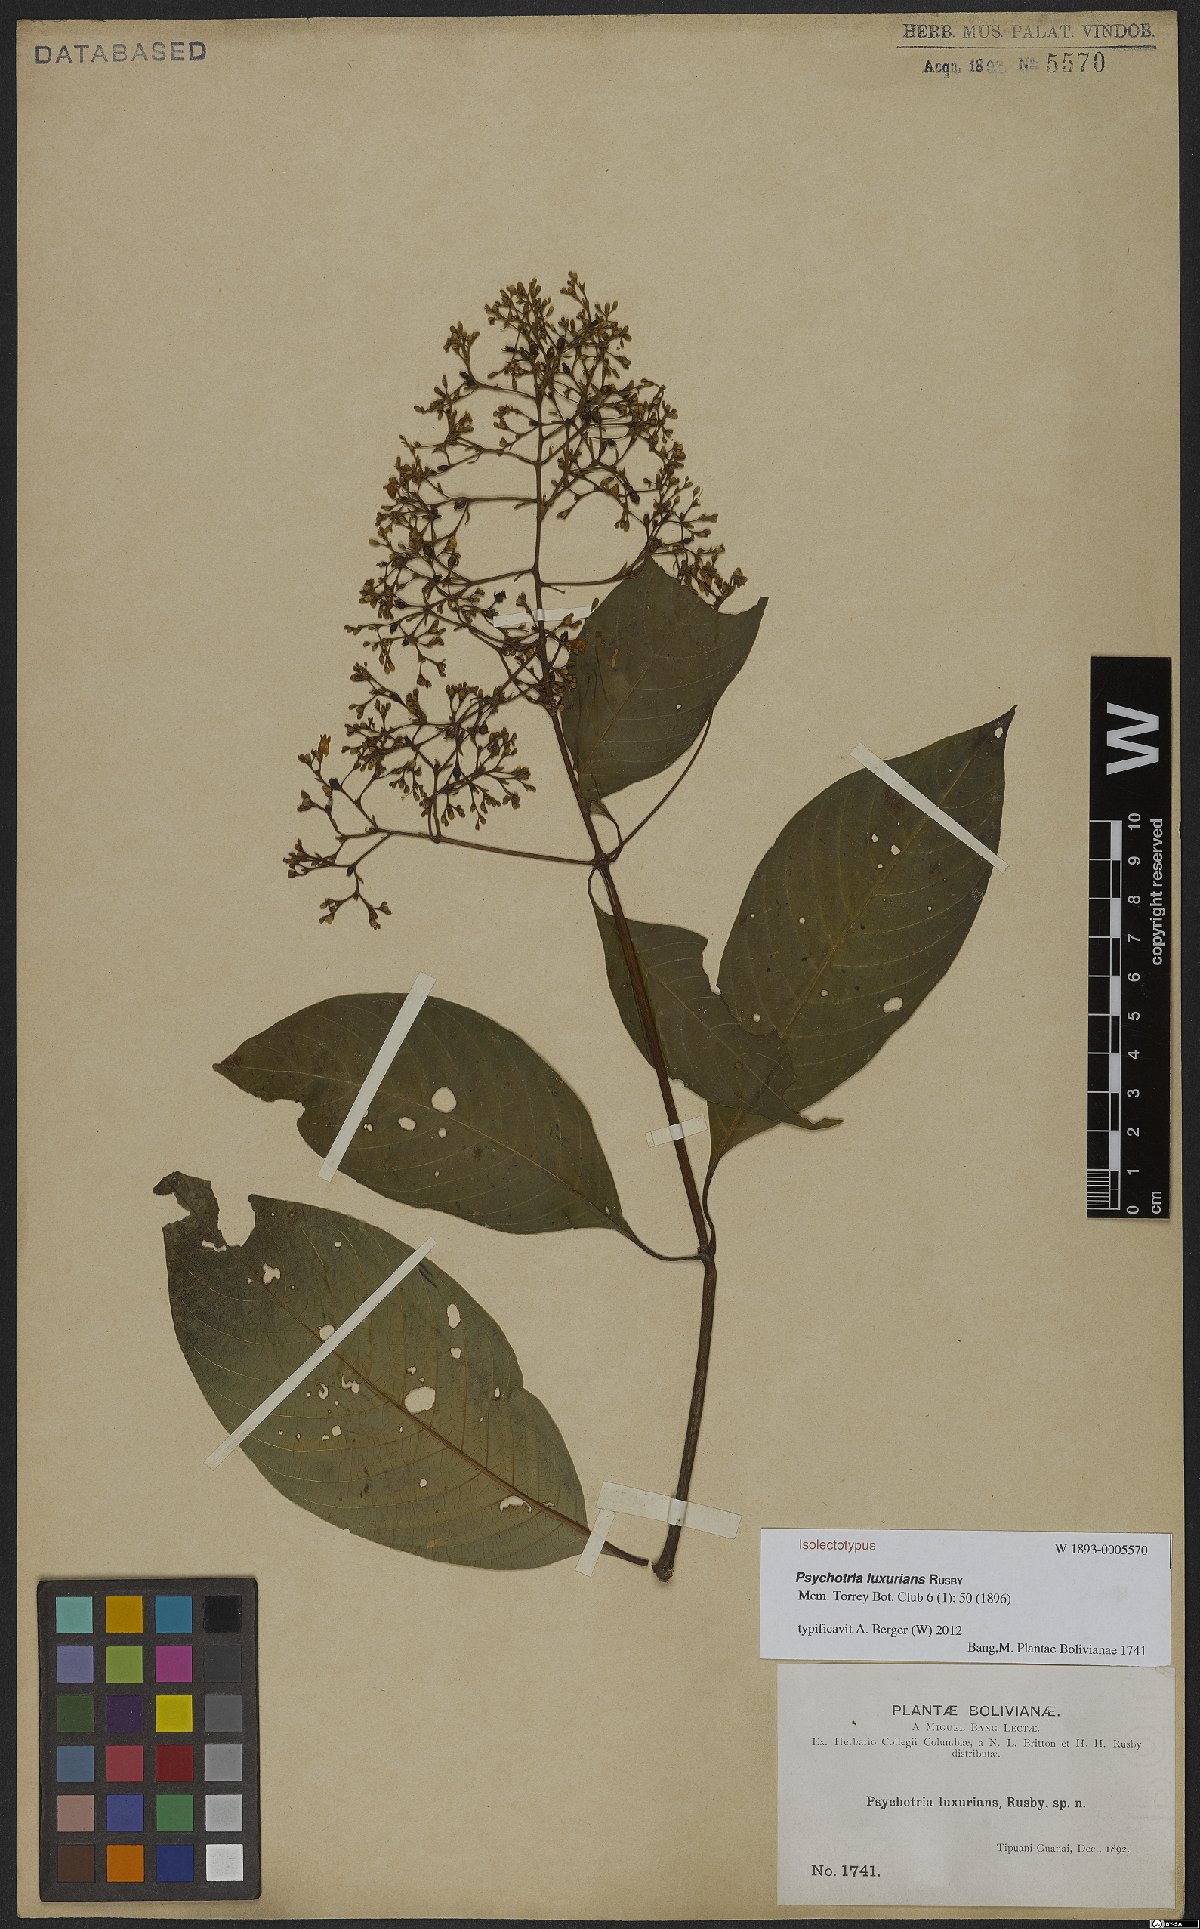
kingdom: Plantae
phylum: Tracheophyta
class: Magnoliopsida
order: Gentianales
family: Rubiaceae
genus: Palicourea
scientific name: Palicourea luxurians
